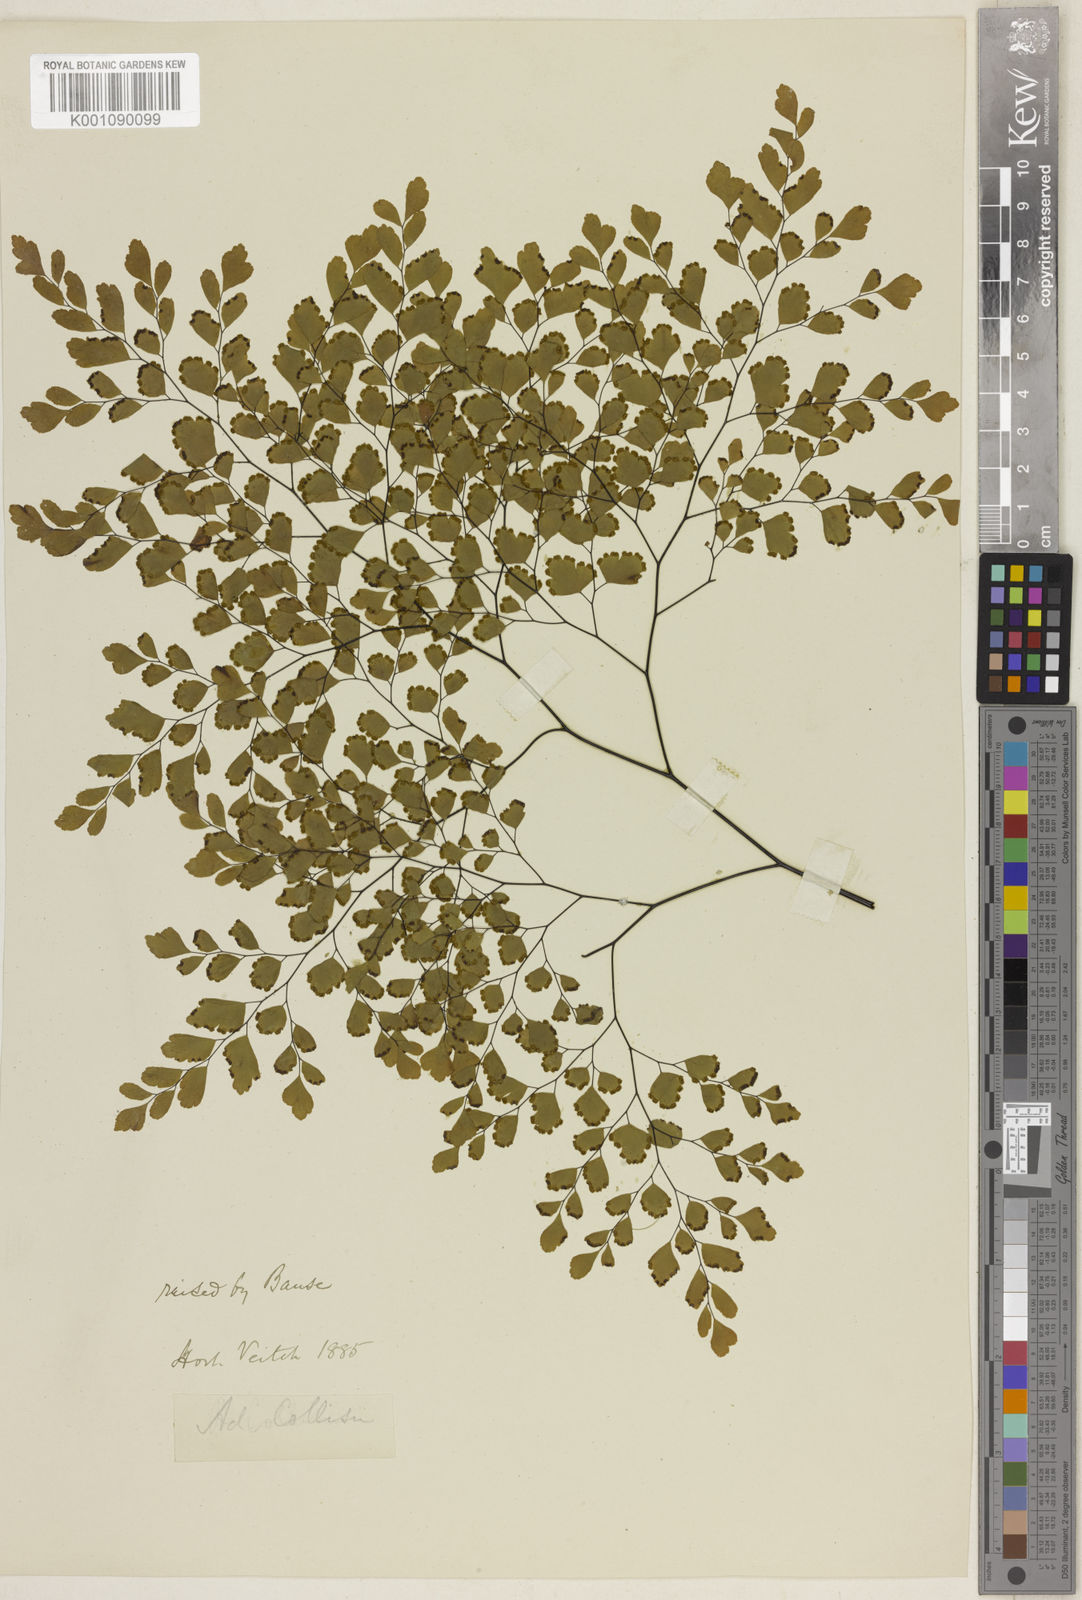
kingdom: Plantae
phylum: Tracheophyta
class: Polypodiopsida
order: Polypodiales
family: Pteridaceae
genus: Adiantum
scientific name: Adiantum tenerum
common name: Fan maidenhair
